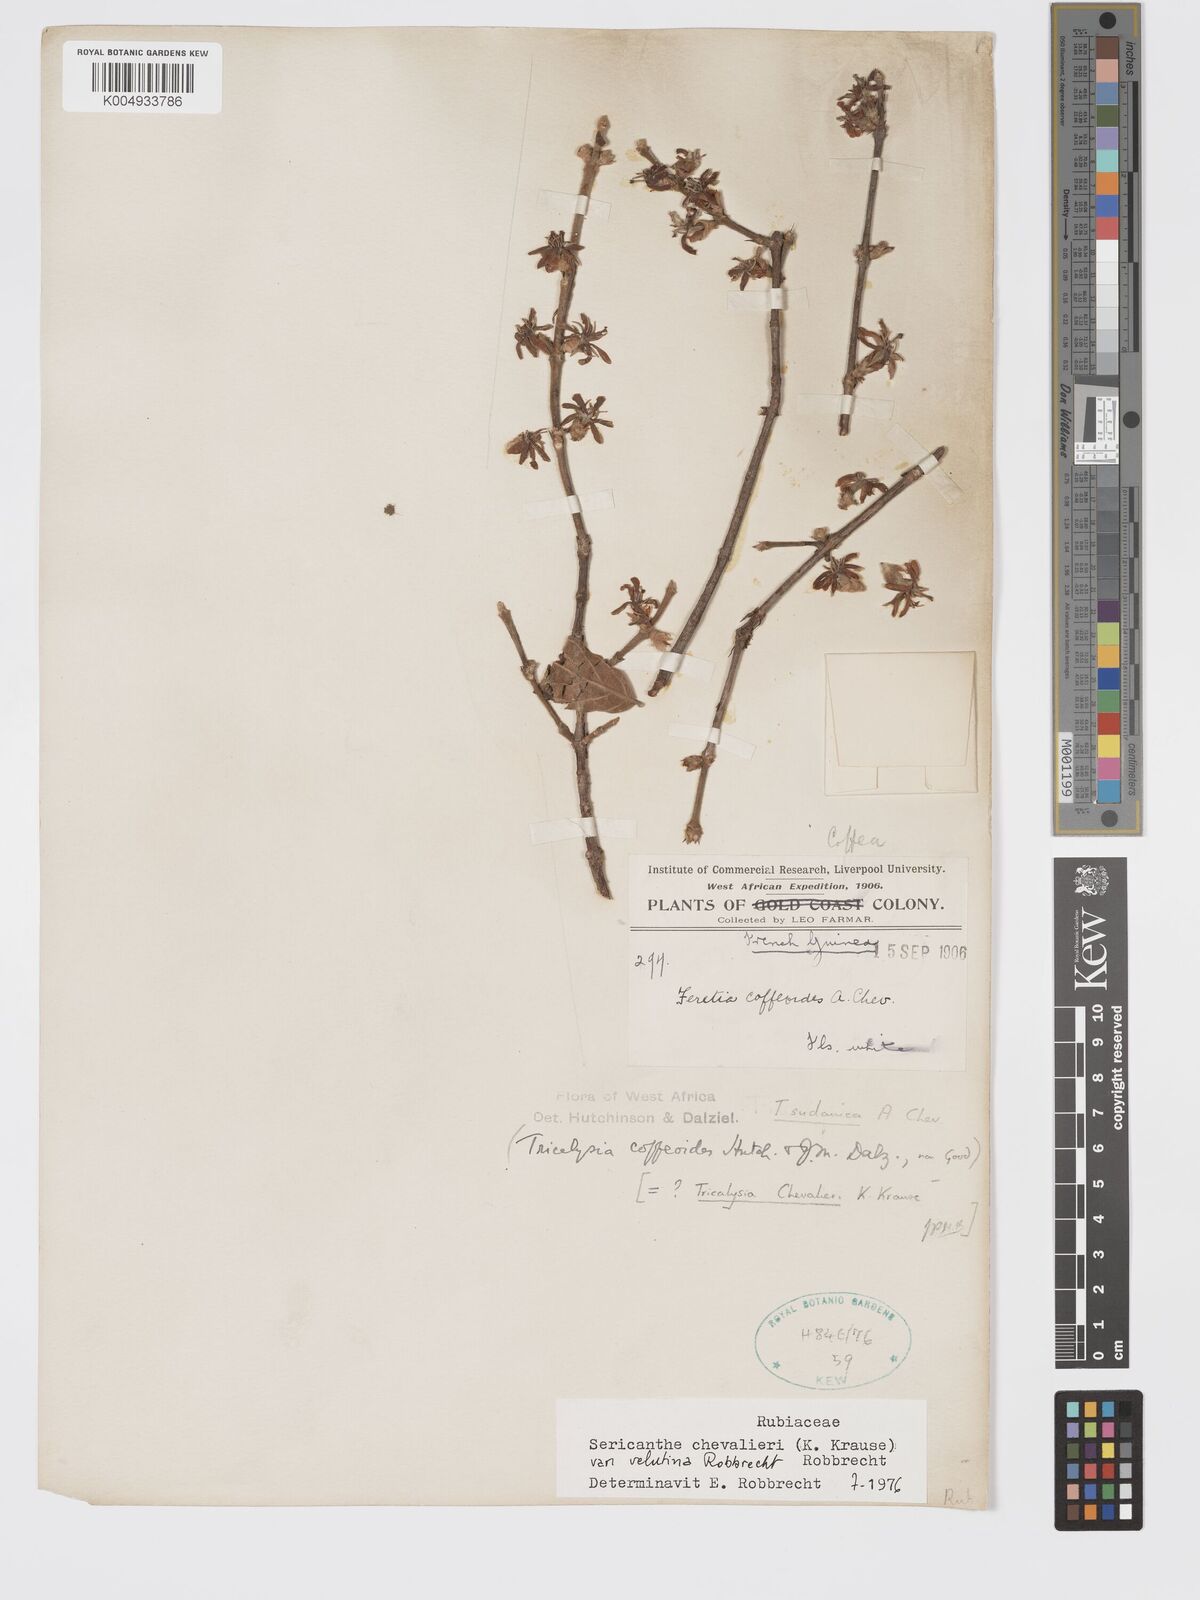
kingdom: Plantae
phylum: Tracheophyta
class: Magnoliopsida
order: Gentianales
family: Rubiaceae
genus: Sericanthe
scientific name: Sericanthe chevalieri
